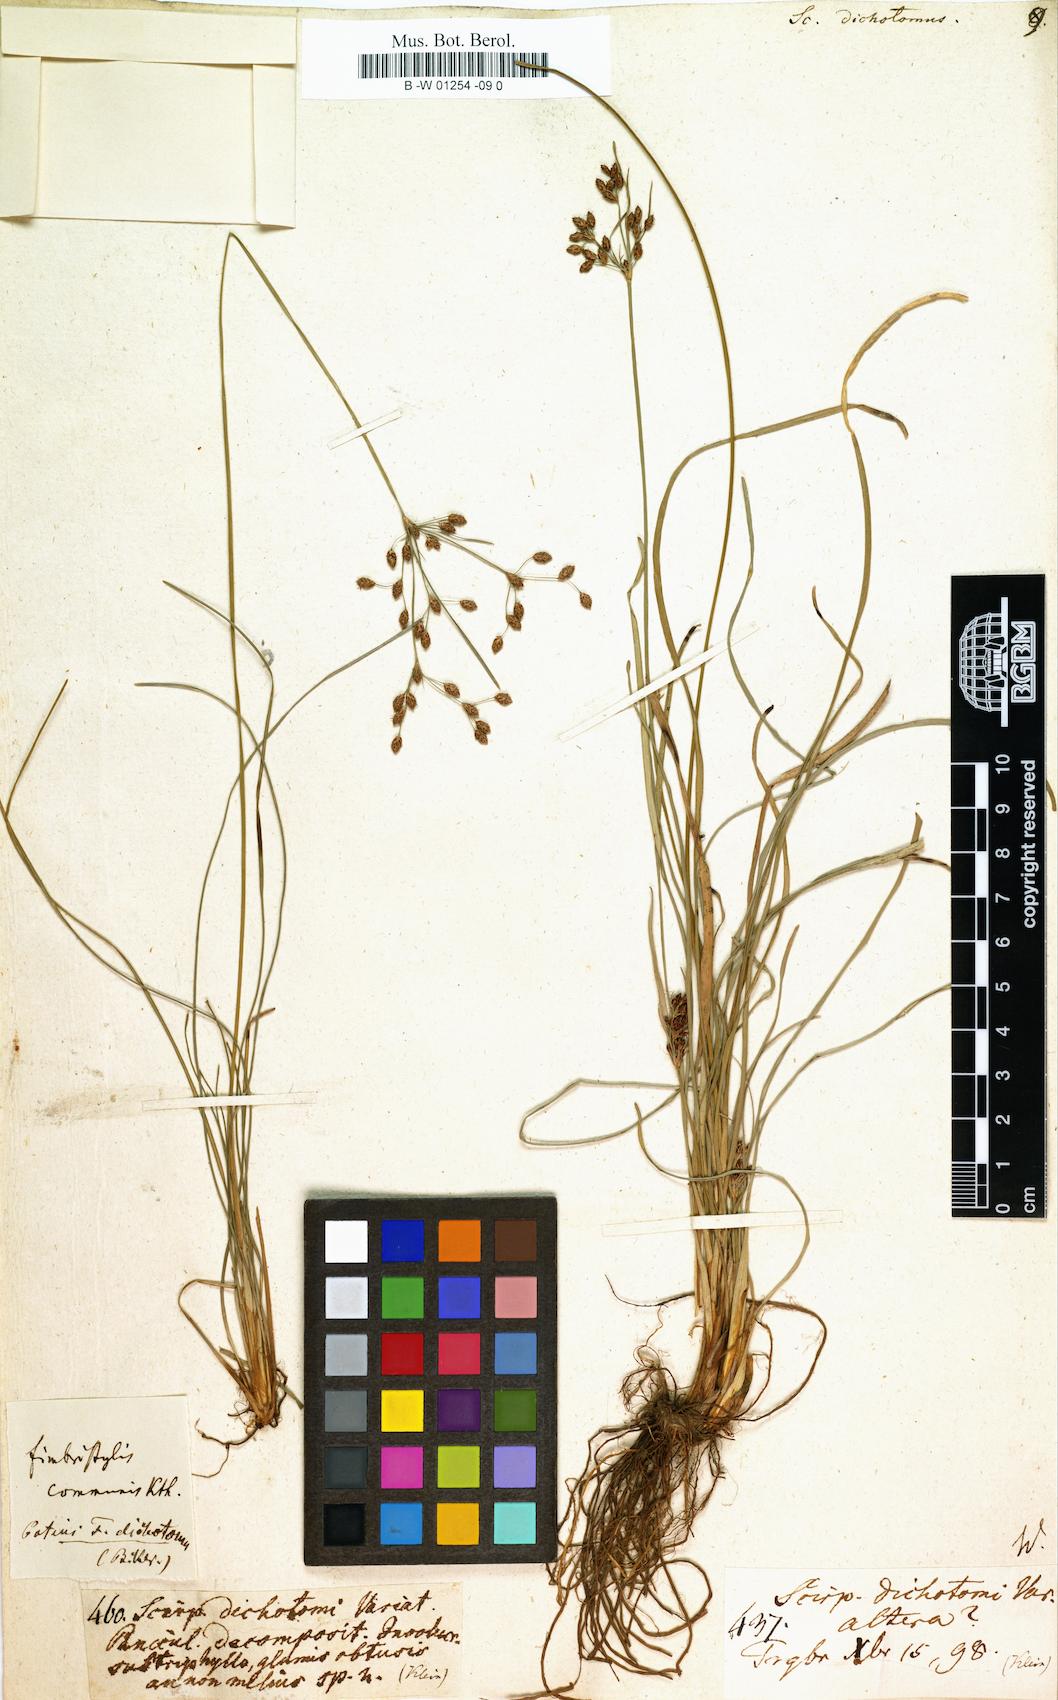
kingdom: Plantae
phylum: Tracheophyta
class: Liliopsida
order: Poales
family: Cyperaceae
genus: Scirpus
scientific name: Scirpus dichotomus
